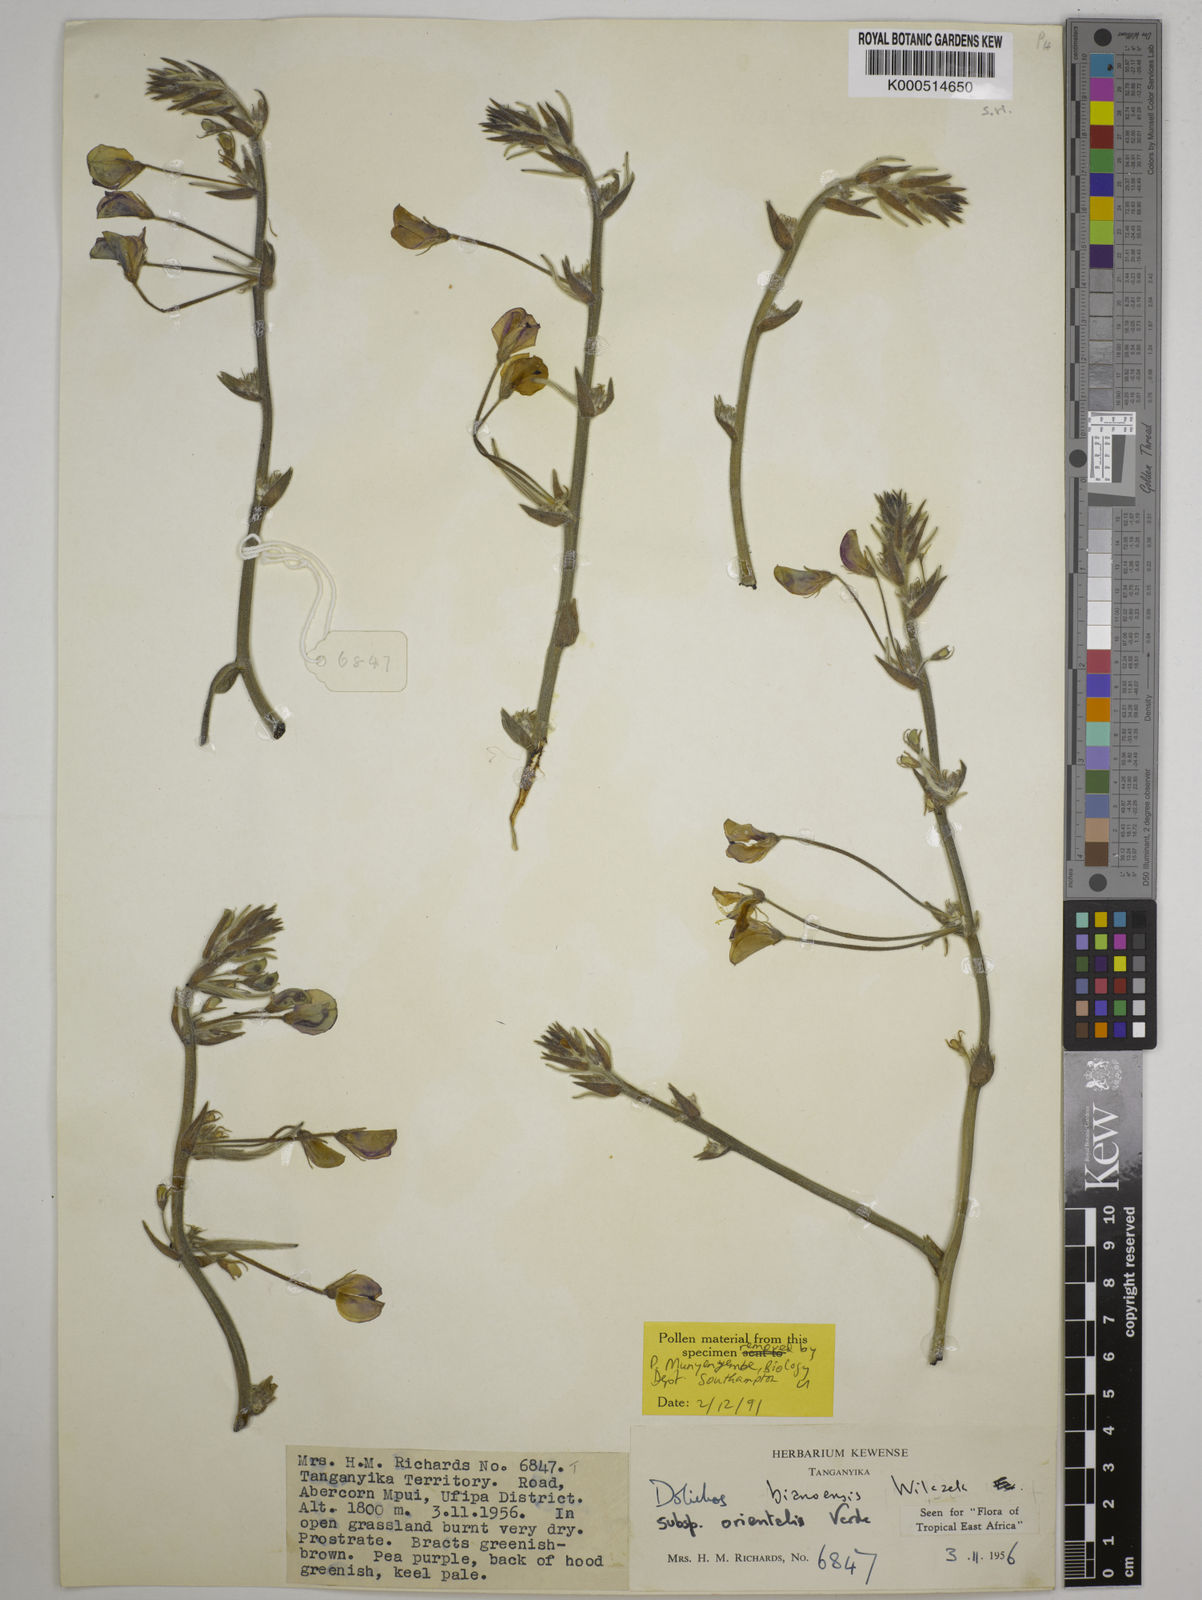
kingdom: Plantae
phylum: Tracheophyta
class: Magnoliopsida
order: Fabales
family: Fabaceae
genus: Dolichos
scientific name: Dolichos
